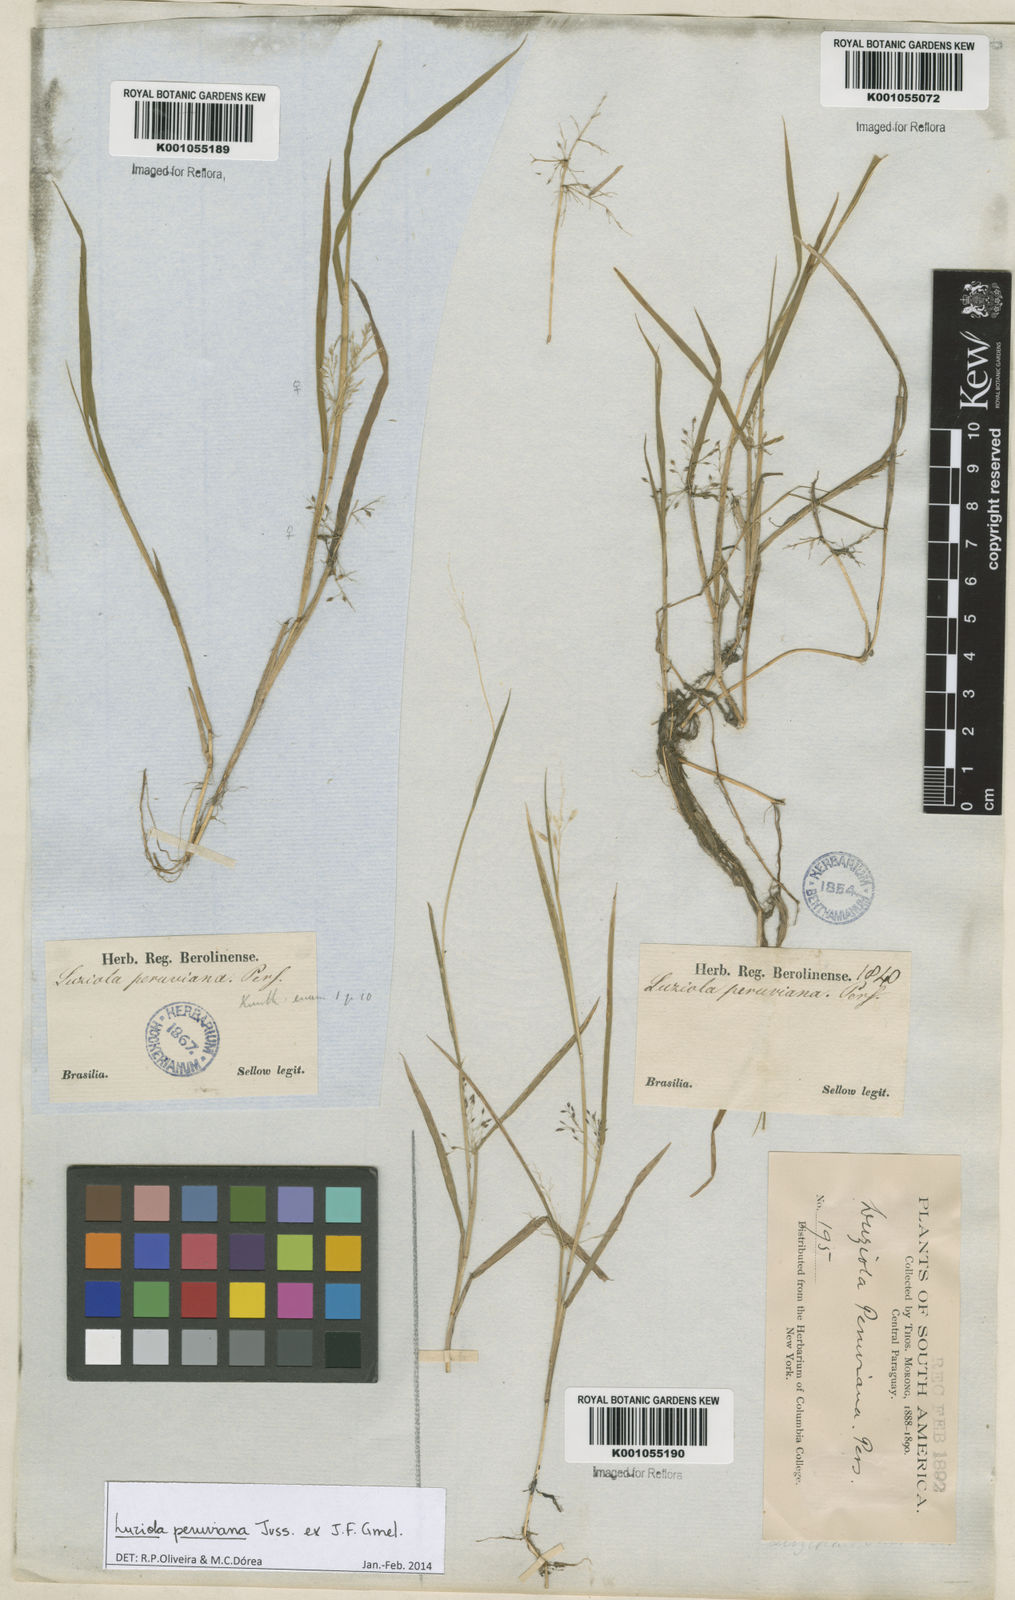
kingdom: Plantae
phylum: Tracheophyta
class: Liliopsida
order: Poales
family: Poaceae
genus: Luziola
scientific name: Luziola peruviana
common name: Peruvian watergrass
